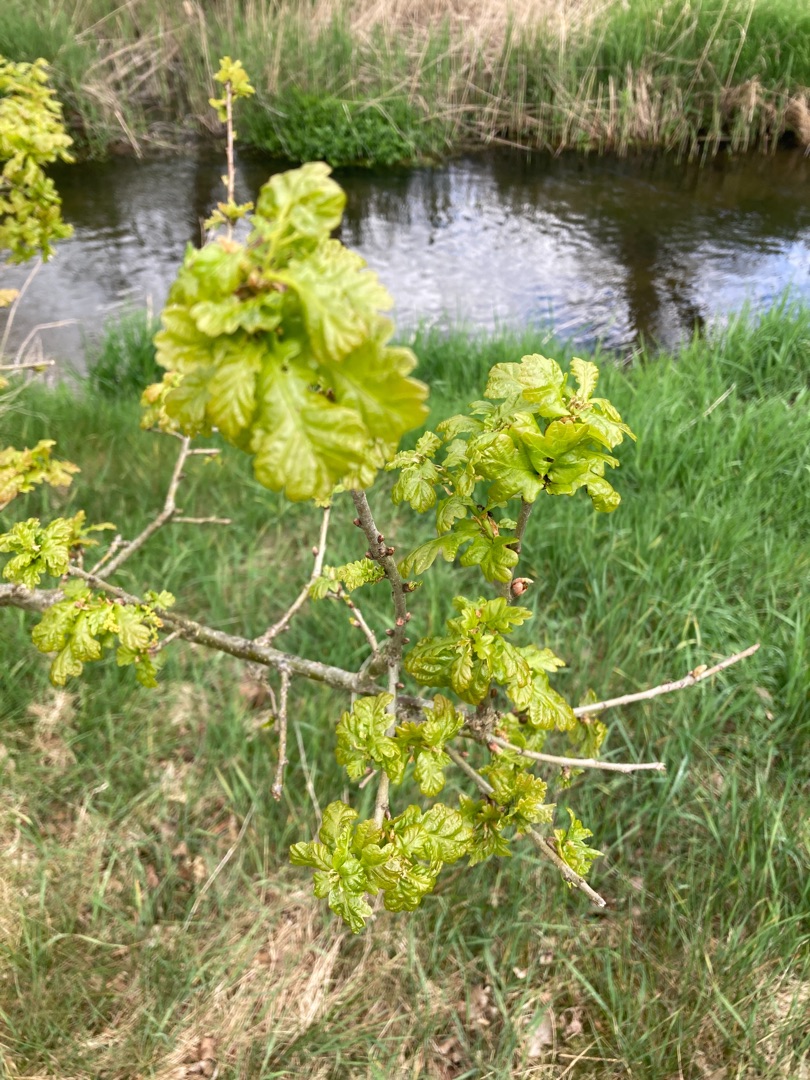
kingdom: Plantae
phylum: Tracheophyta
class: Magnoliopsida
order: Fagales
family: Fagaceae
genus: Quercus
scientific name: Quercus robur
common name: Stilk-eg/almindelig eg
